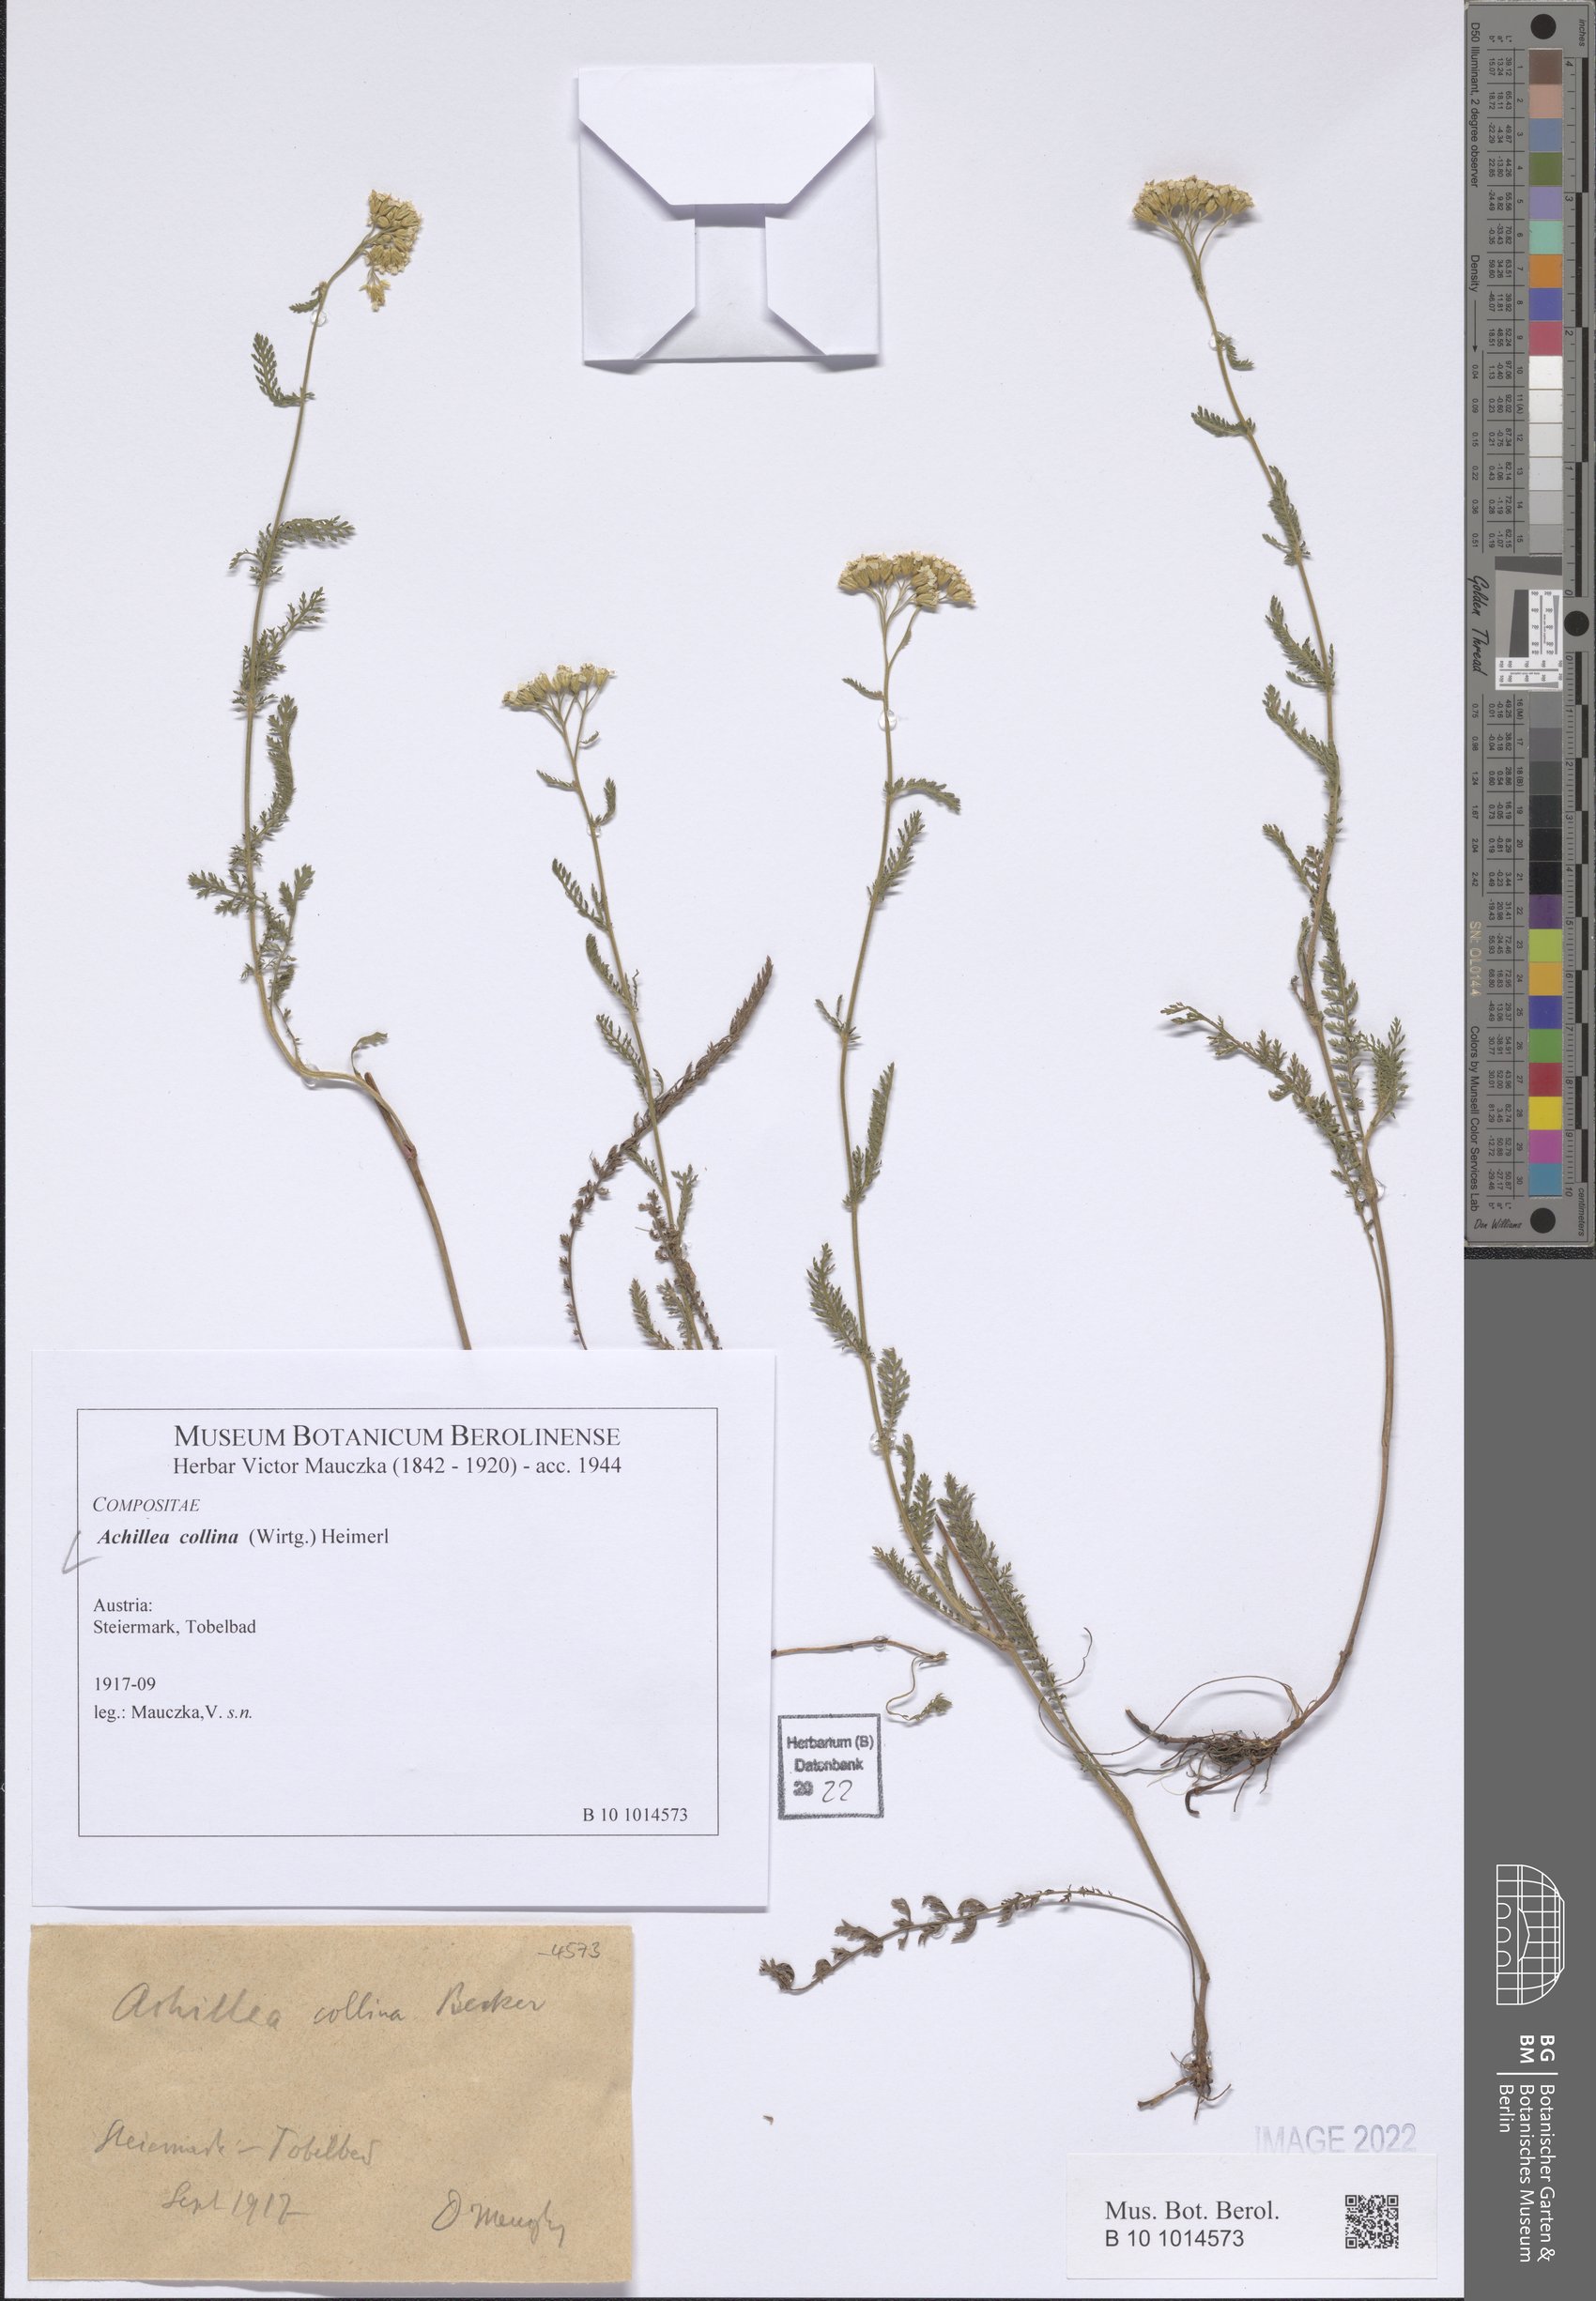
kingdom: Plantae
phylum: Tracheophyta
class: Magnoliopsida
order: Asterales
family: Asteraceae
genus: Achillea
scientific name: Achillea collina
